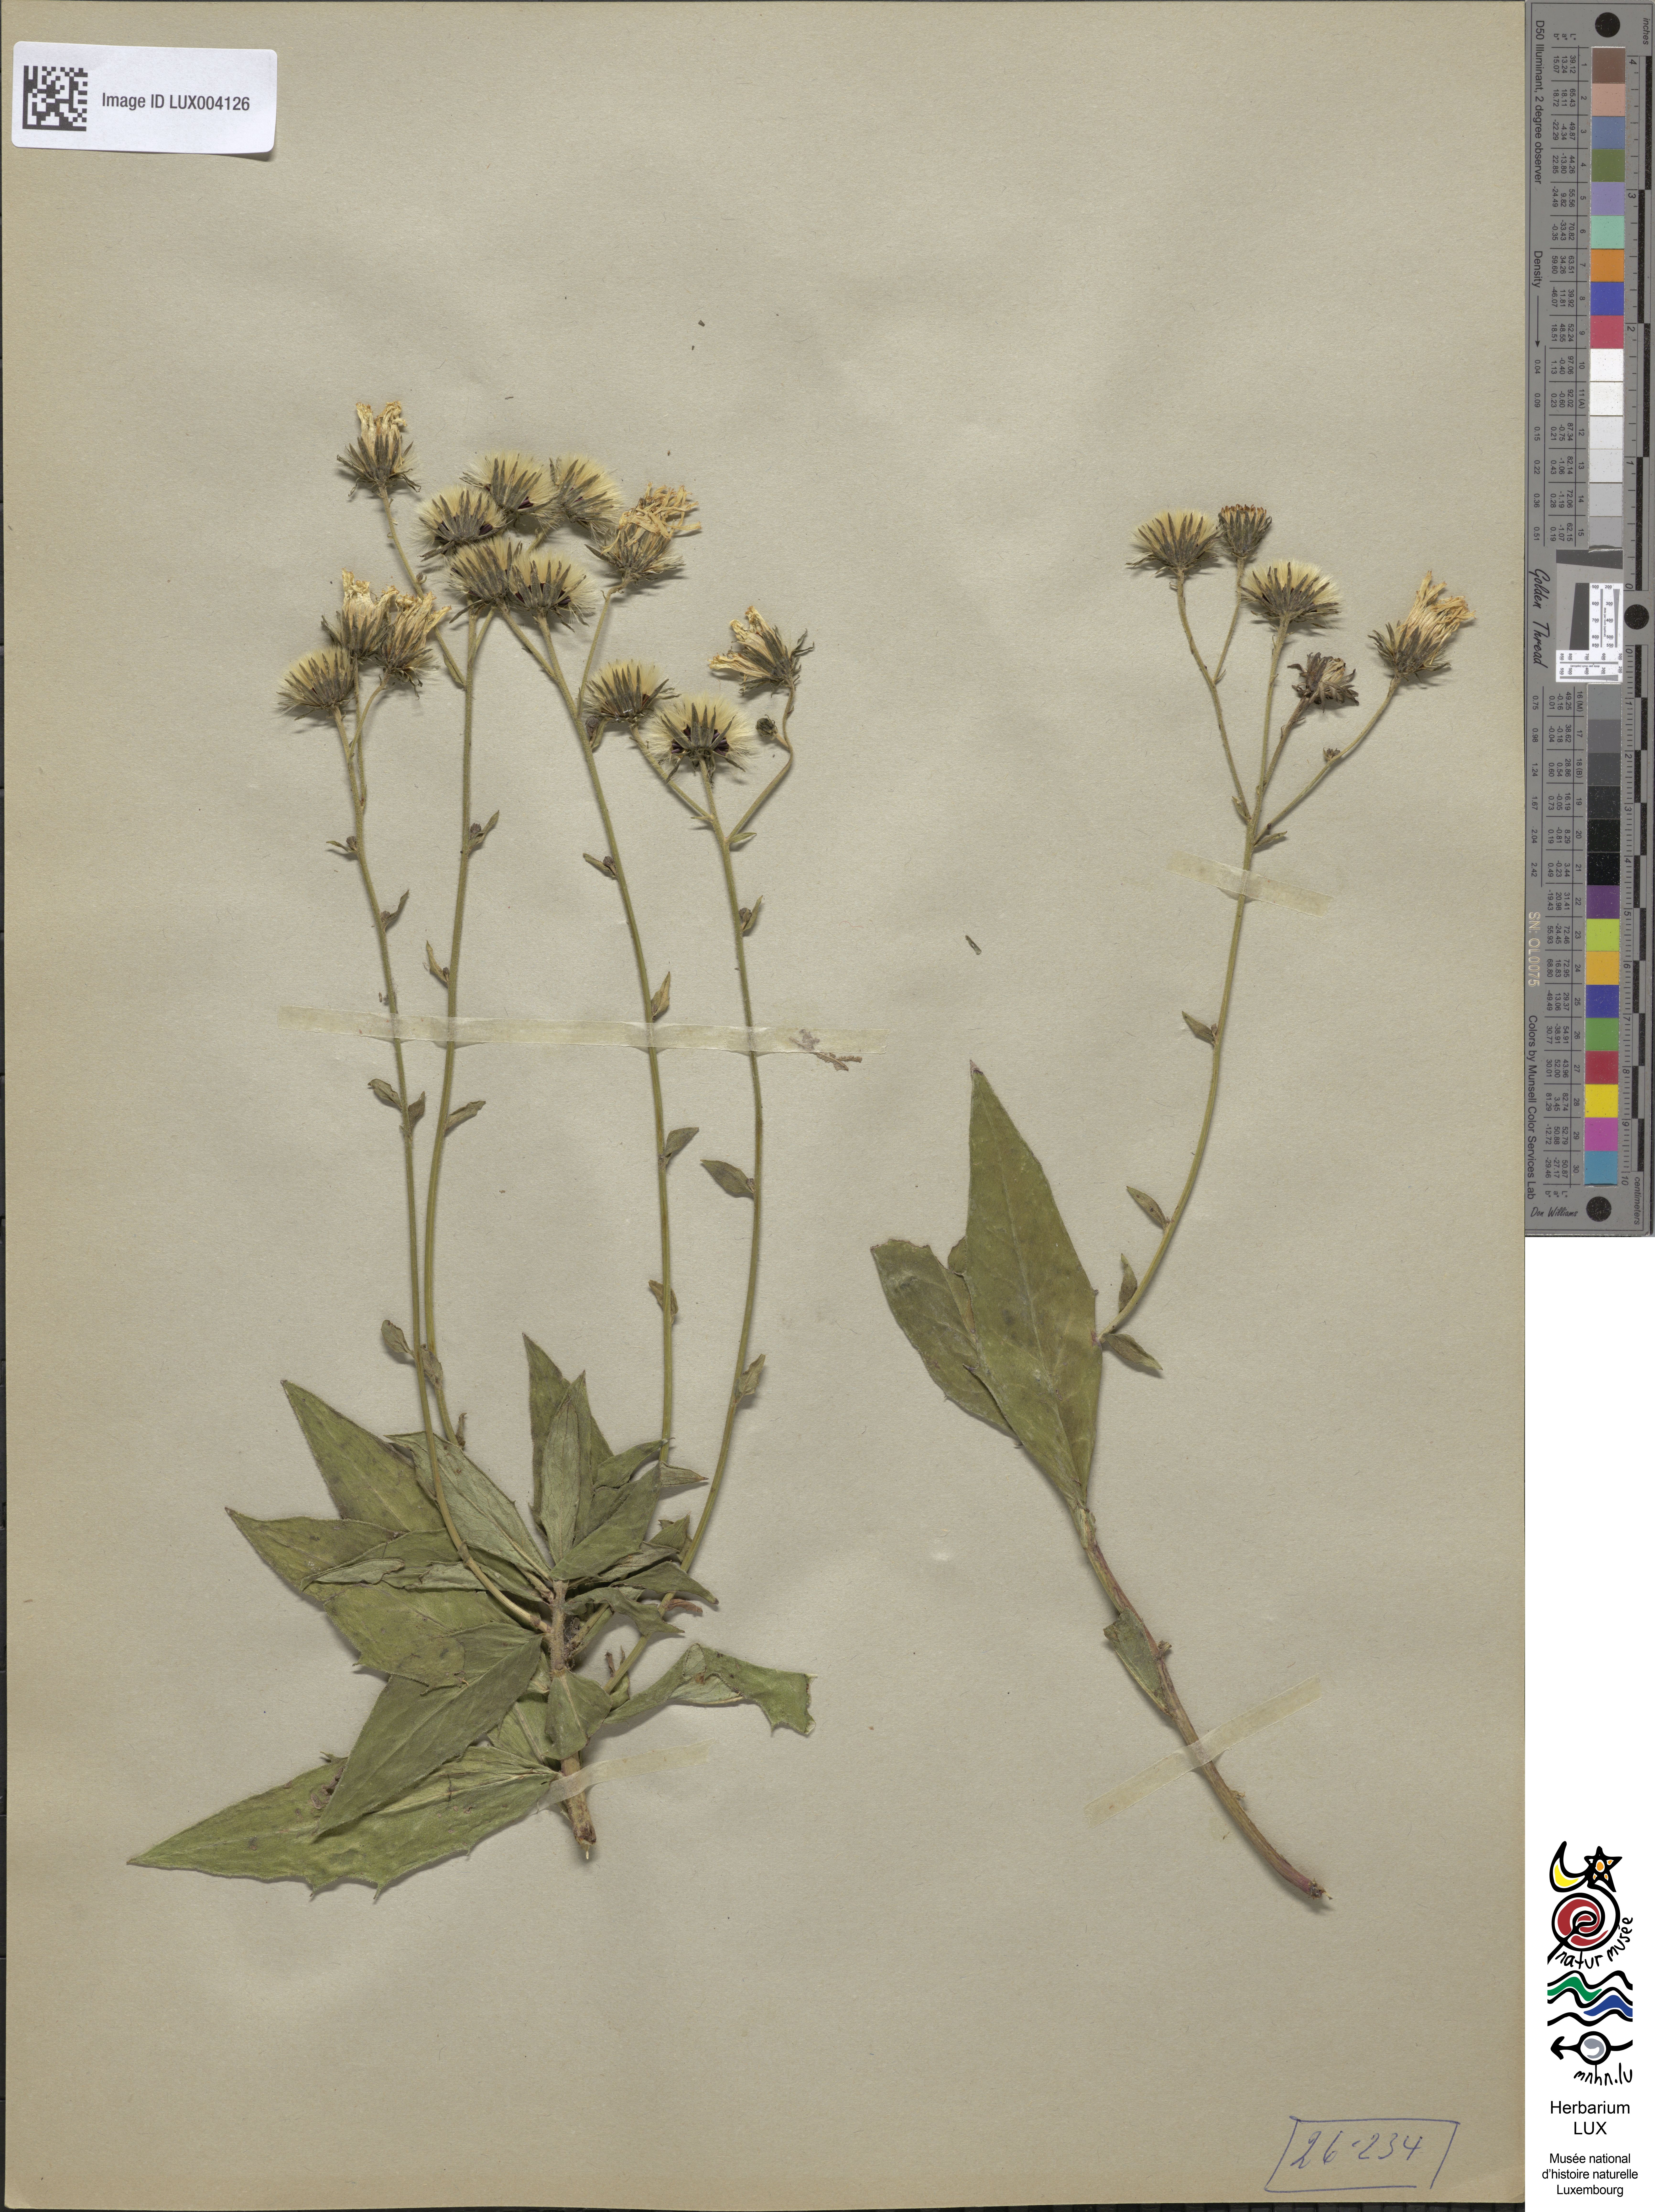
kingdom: Plantae
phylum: Tracheophyta
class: Magnoliopsida
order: Asterales
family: Asteraceae
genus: Hieracium
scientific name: Hieracium sabaudum
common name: New england hawkweed
